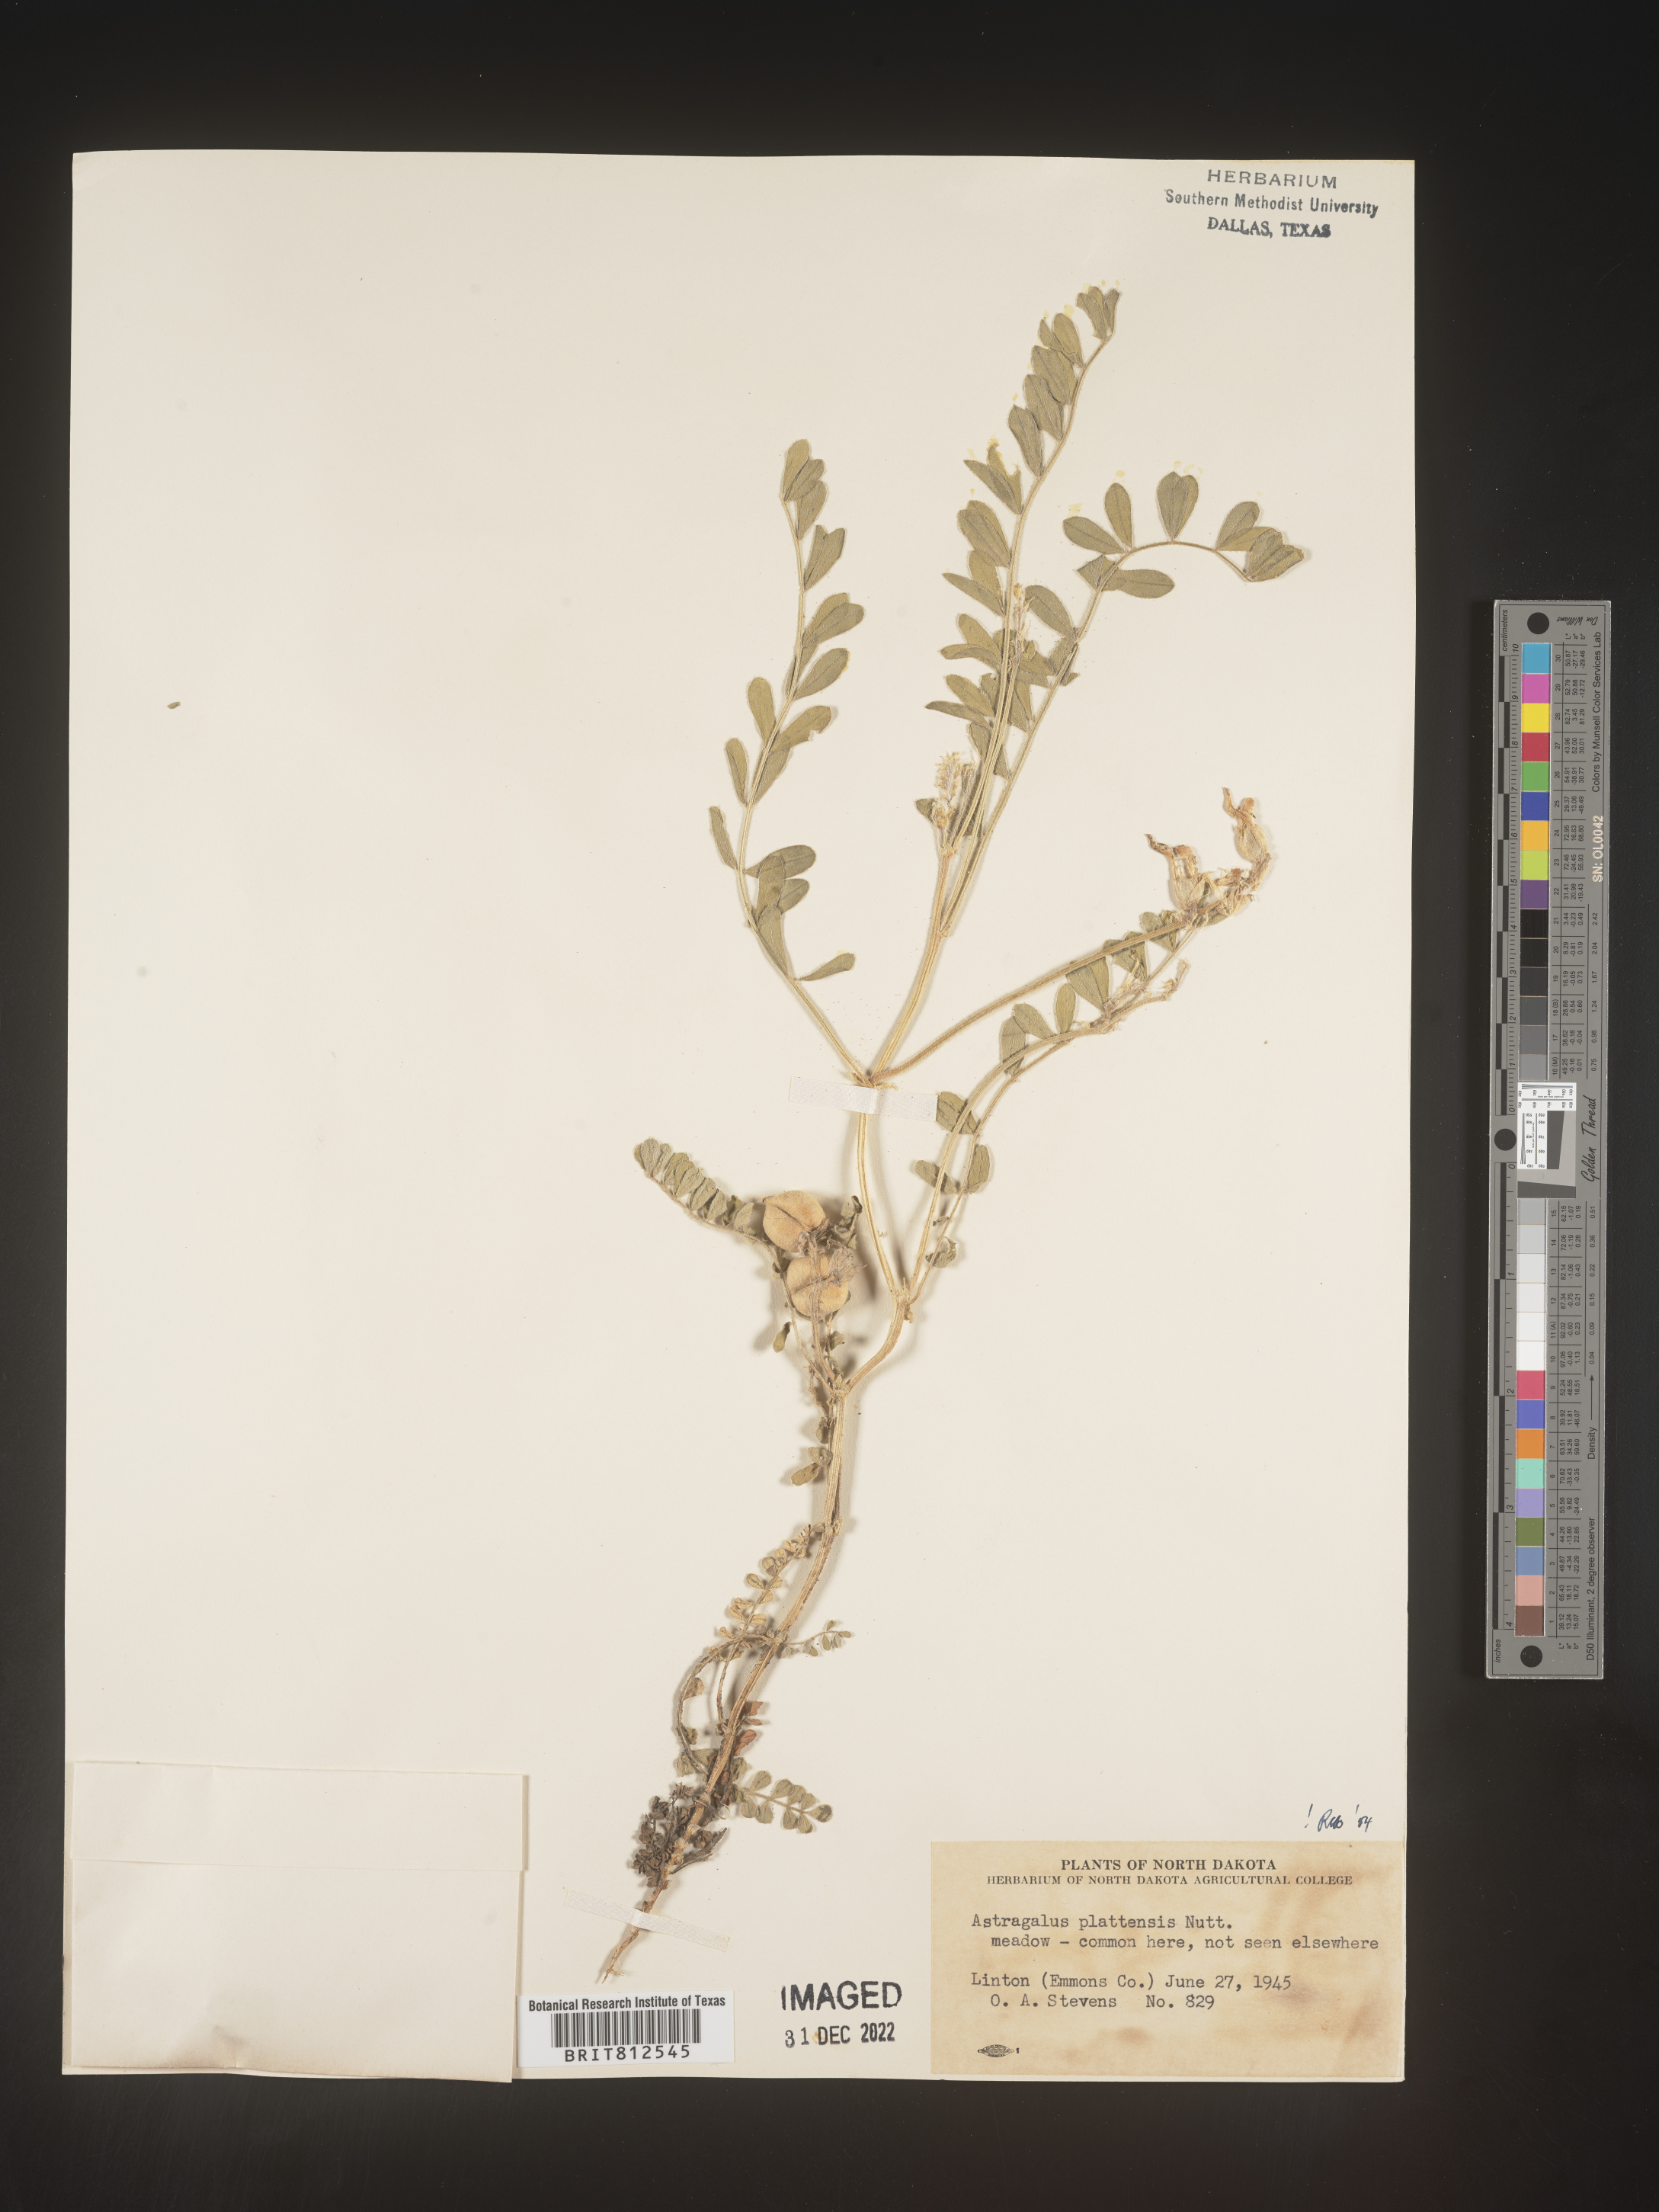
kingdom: Plantae
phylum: Tracheophyta
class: Magnoliopsida
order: Fabales
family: Fabaceae
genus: Astragalus
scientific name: Astragalus plattensis
